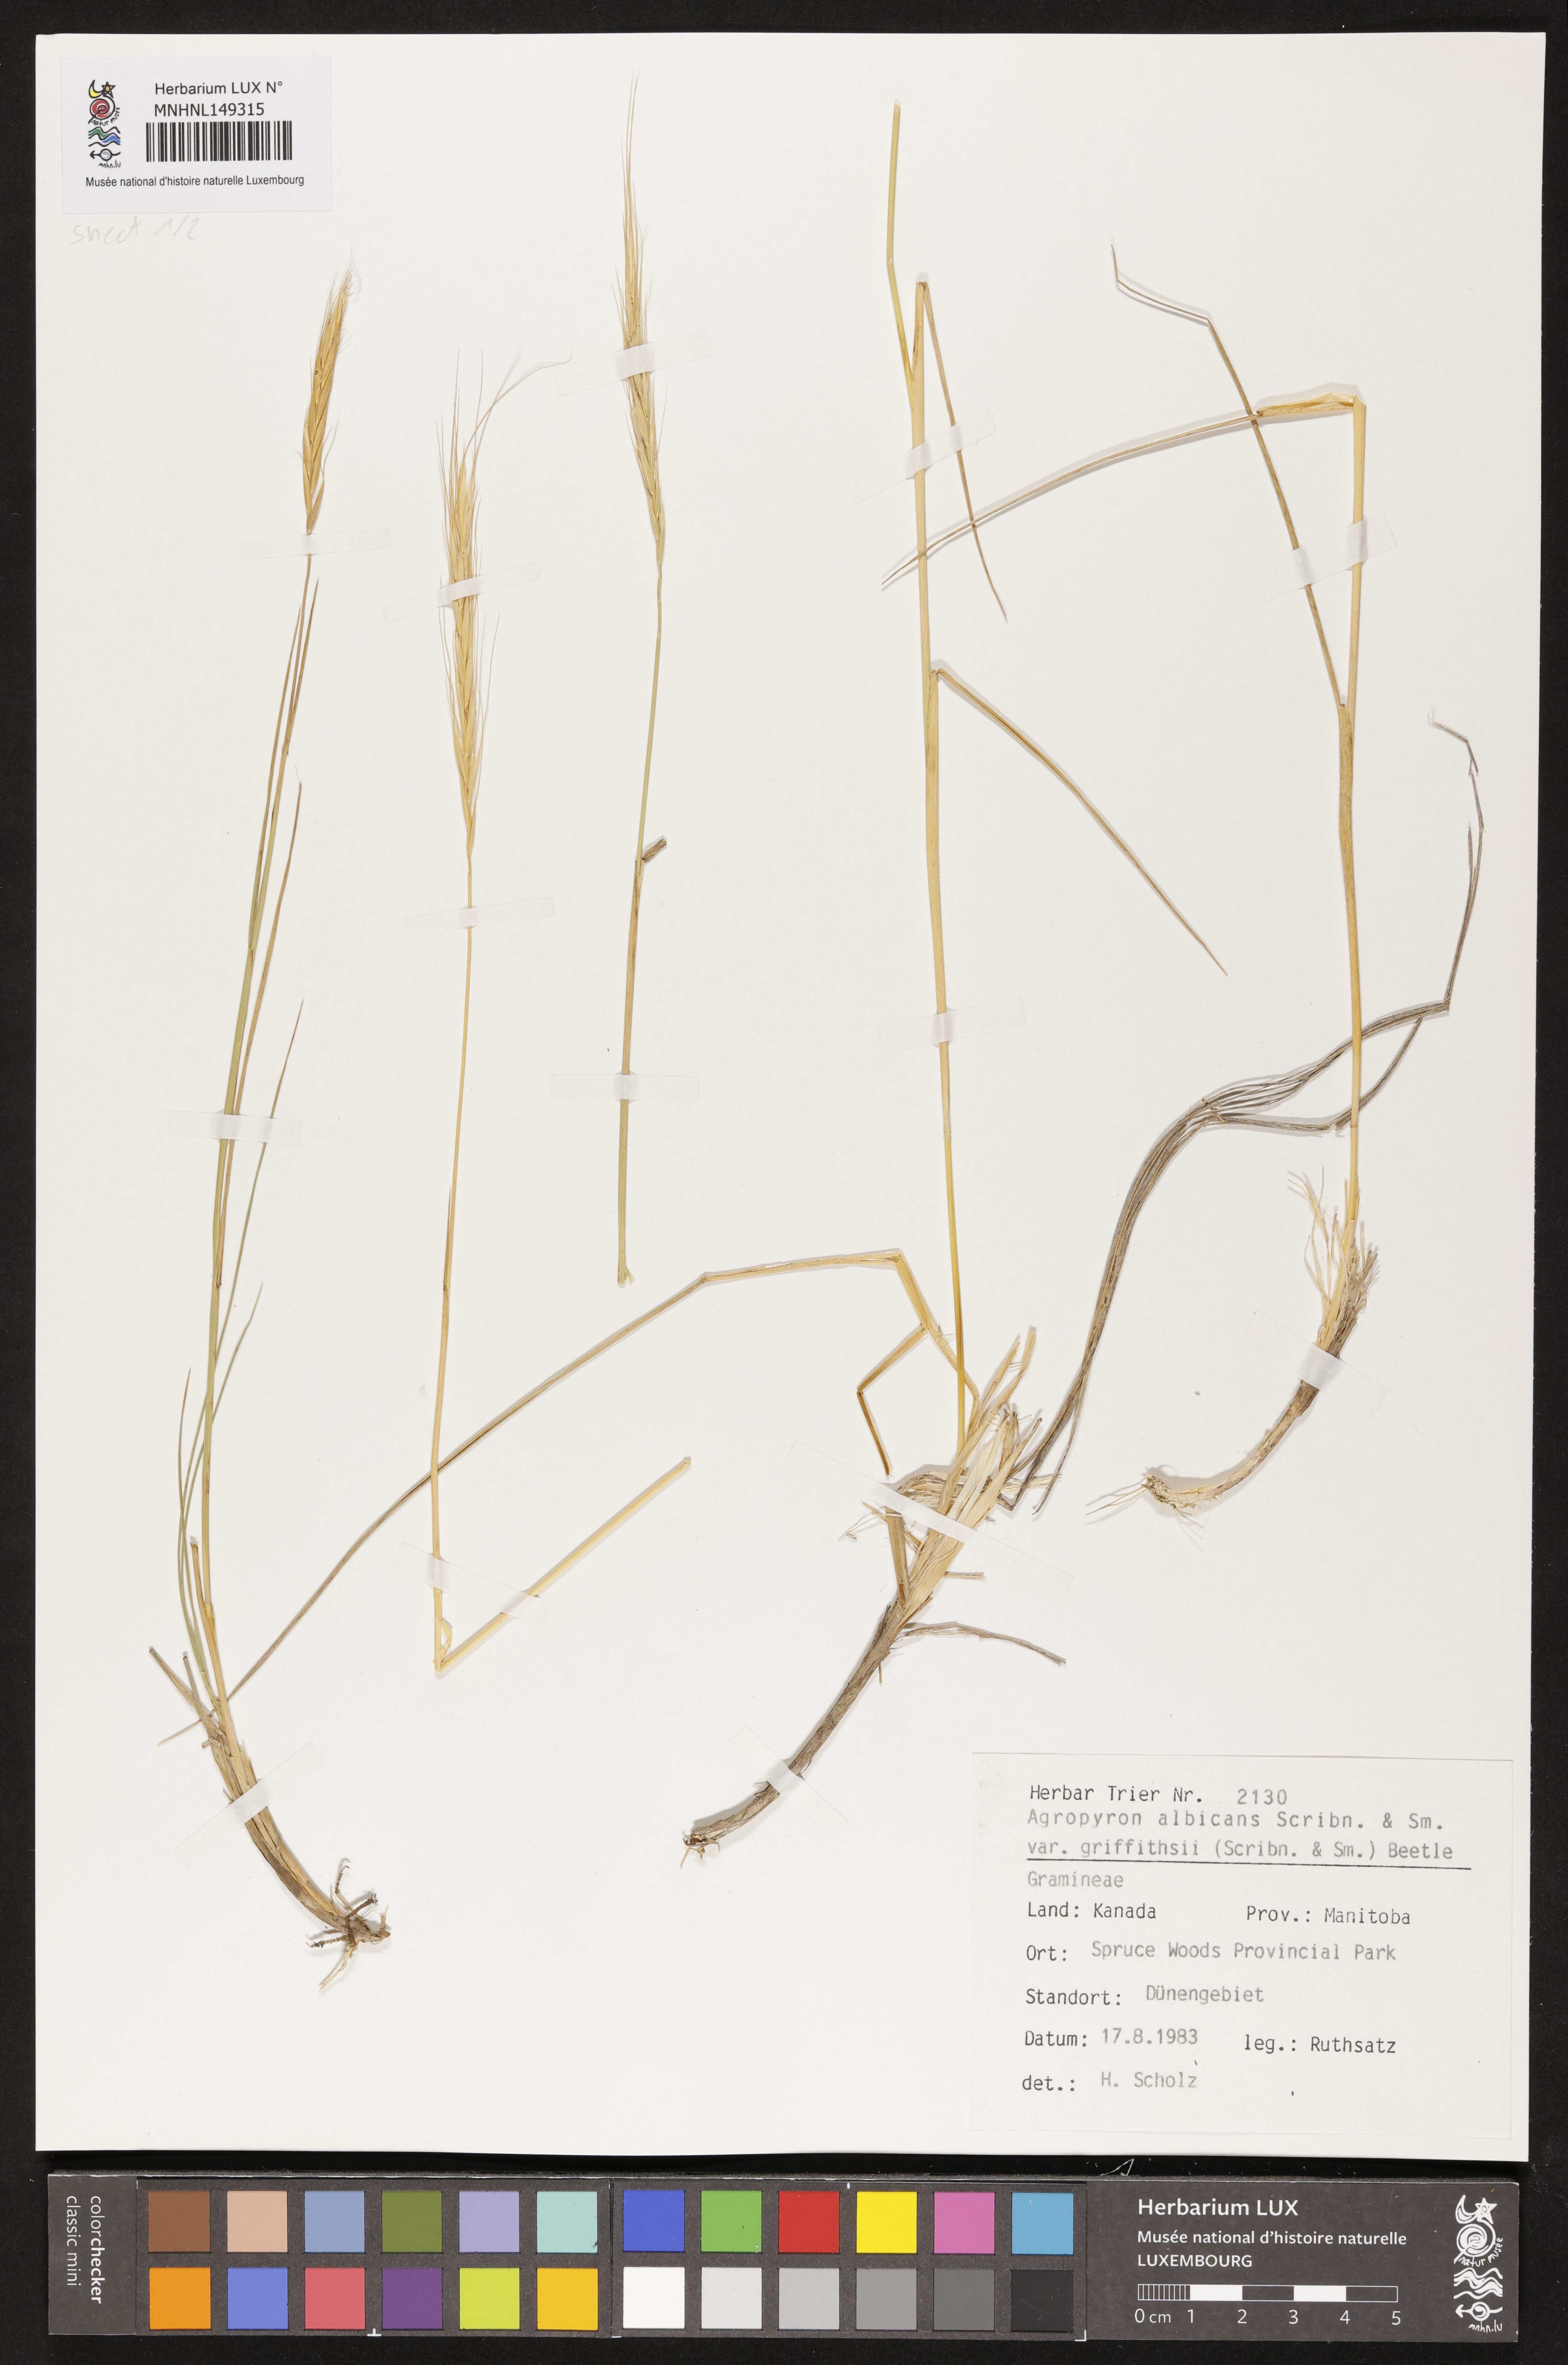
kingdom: Plantae
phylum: Tracheophyta
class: Liliopsida
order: Poales
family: Poaceae
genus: Elymus
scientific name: Elymus albicans
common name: Montana wheatgrass
